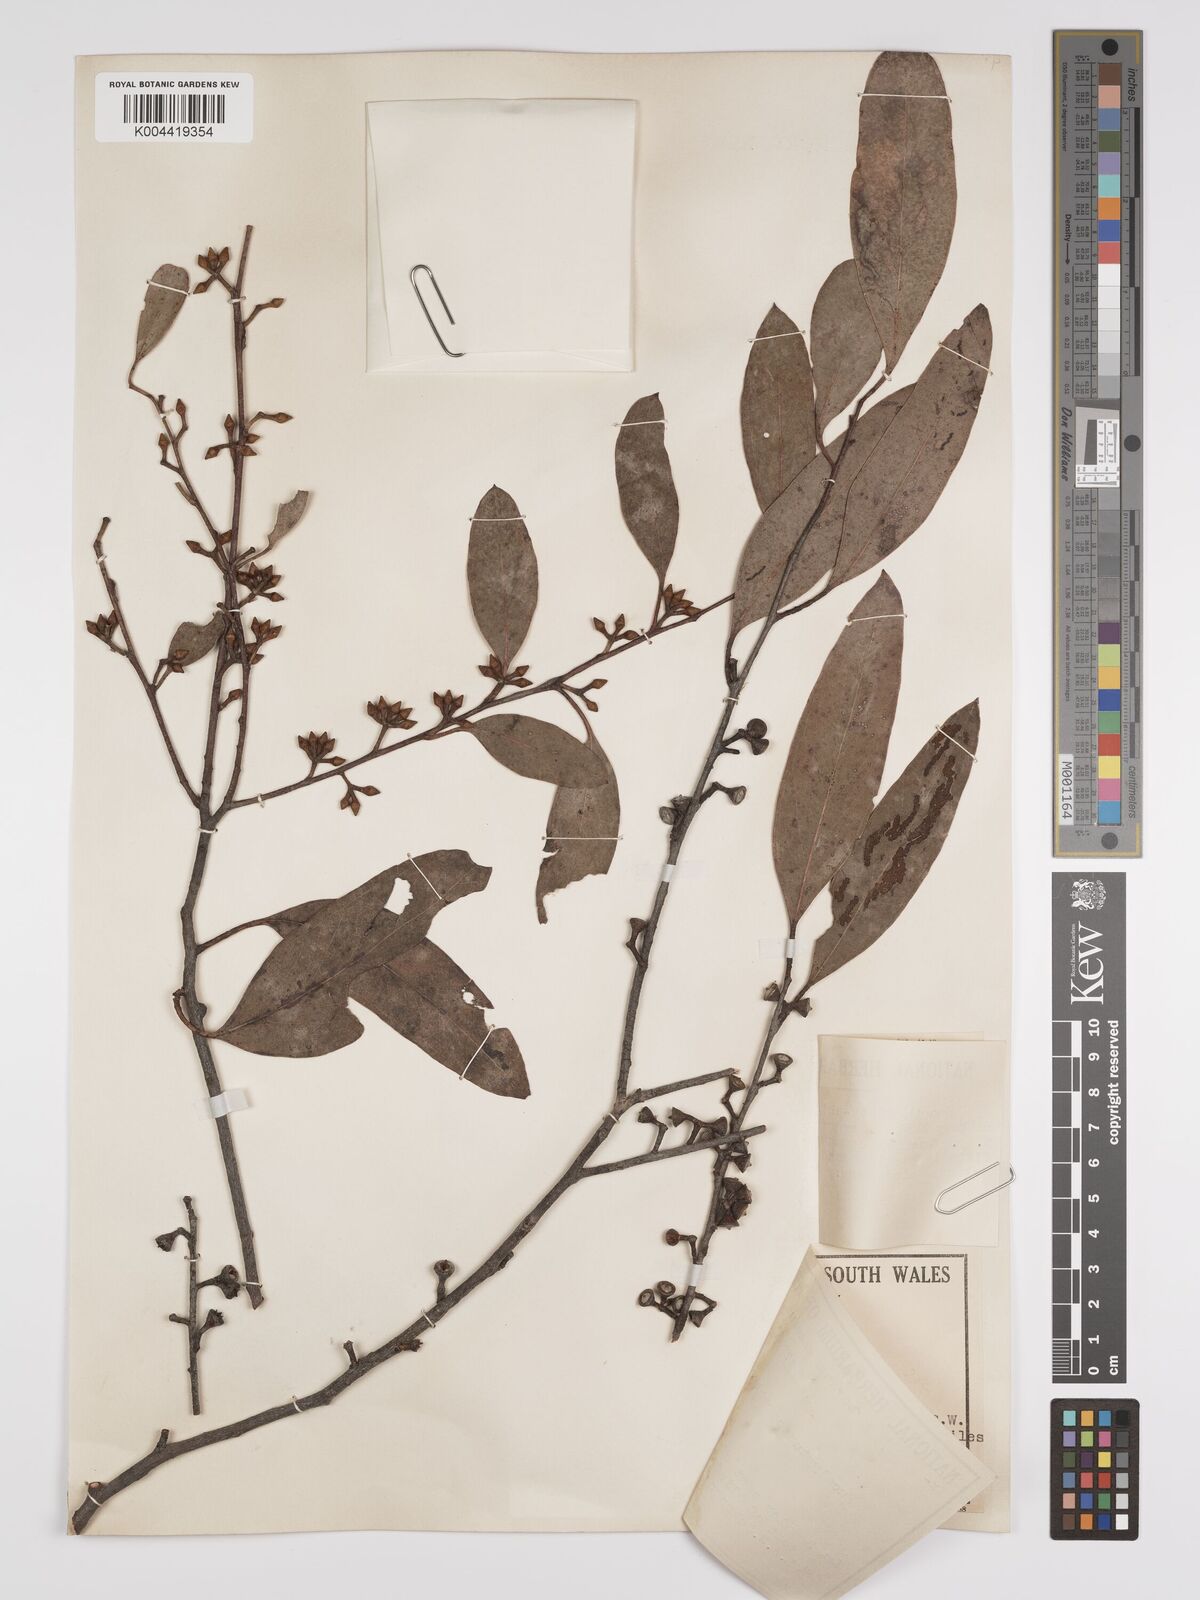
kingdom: Plantae
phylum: Tracheophyta
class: Magnoliopsida
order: Myrtales
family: Myrtaceae
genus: Eucalyptus
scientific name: Eucalyptus camphora
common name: Mountain swamp gum
